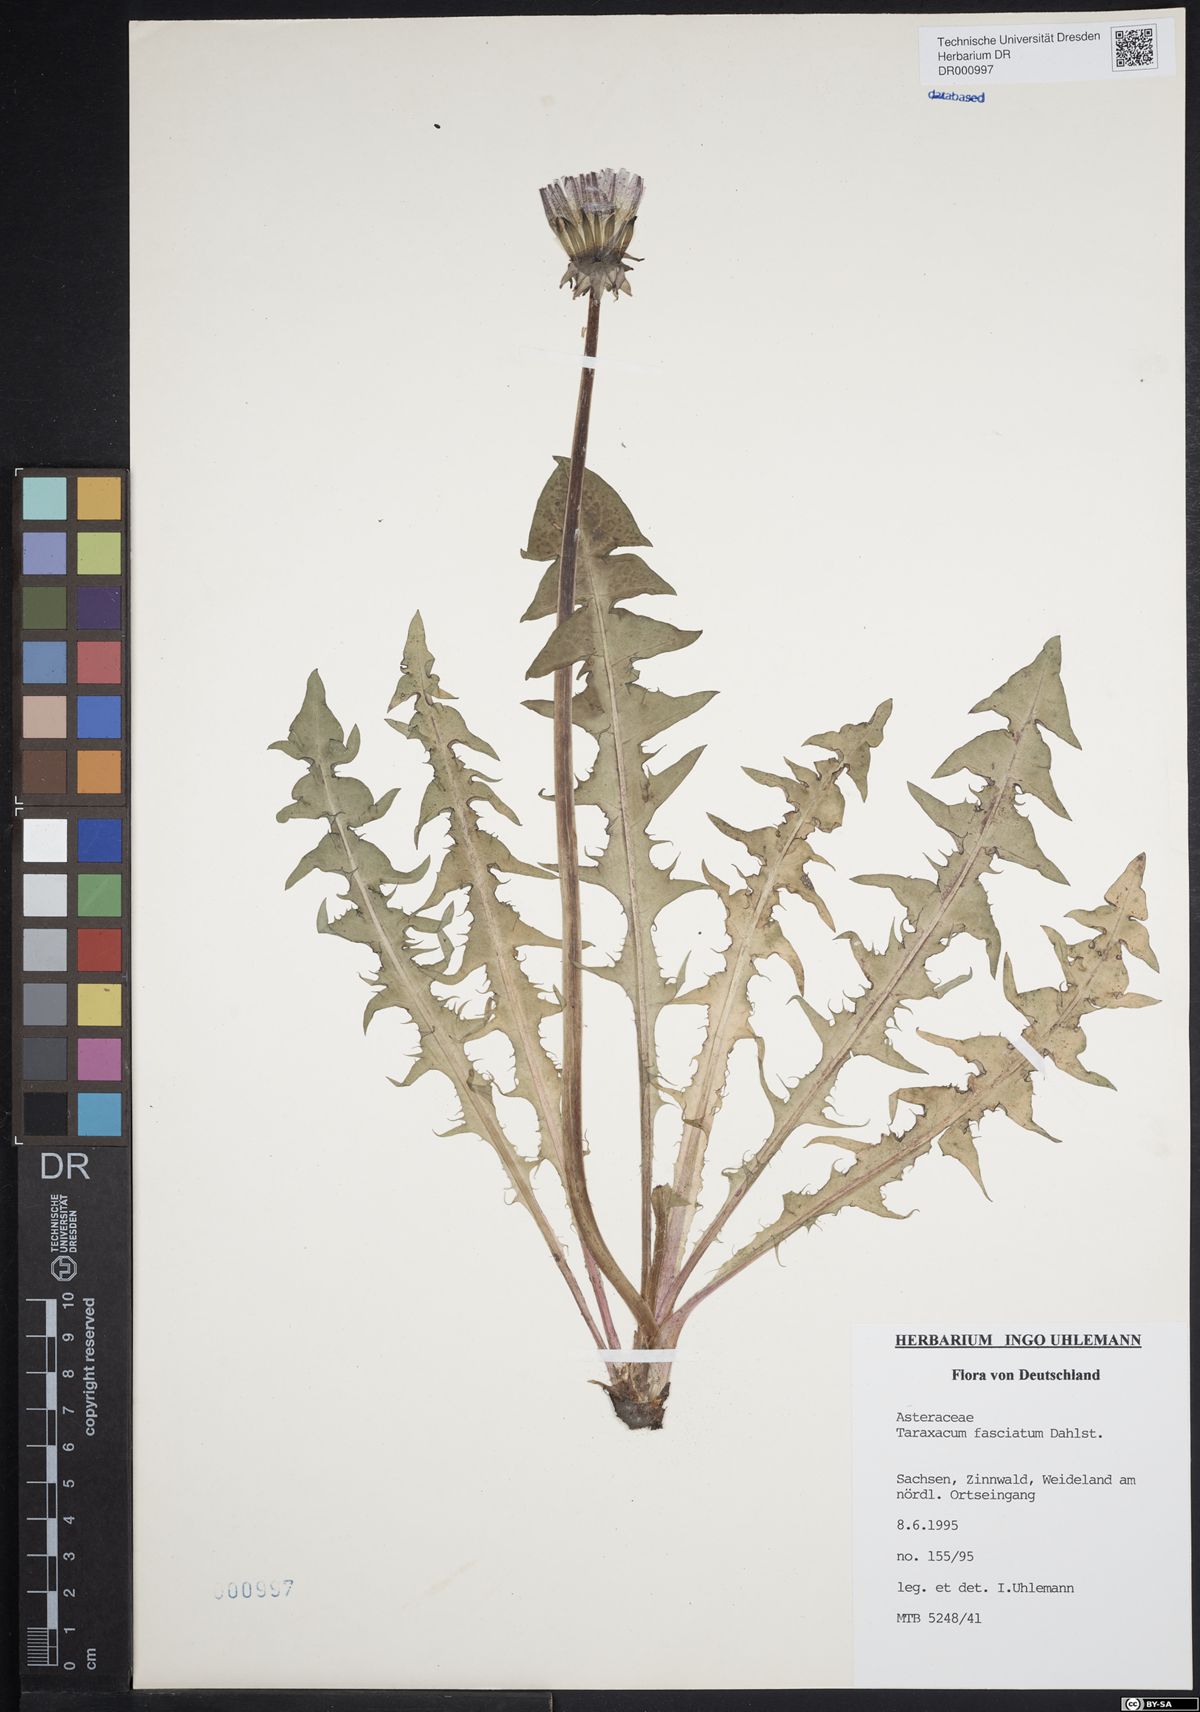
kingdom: Plantae
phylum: Tracheophyta
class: Magnoliopsida
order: Asterales
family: Asteraceae
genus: Taraxacum
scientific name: Taraxacum fasciatum
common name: Dense-bracted dandelion
